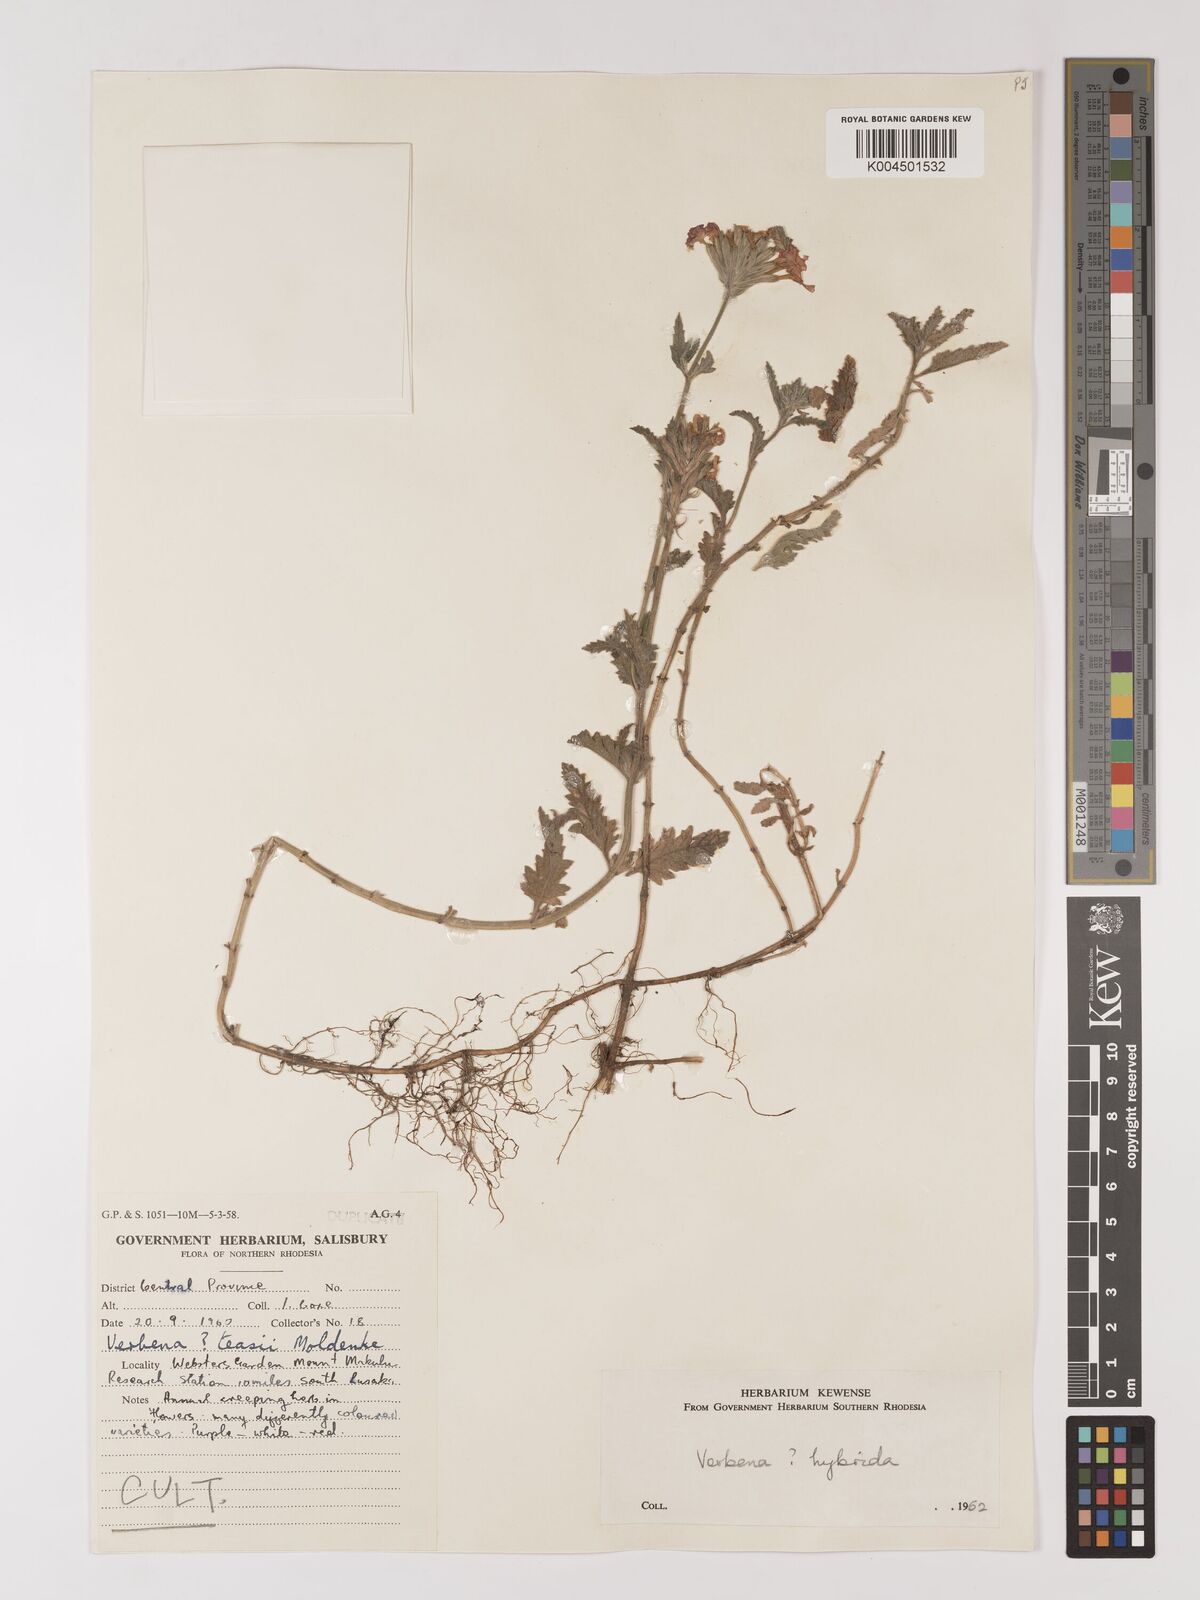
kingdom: Plantae
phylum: Tracheophyta
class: Magnoliopsida
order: Lamiales
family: Verbenaceae
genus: Verbena
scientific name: Verbena hybrida
